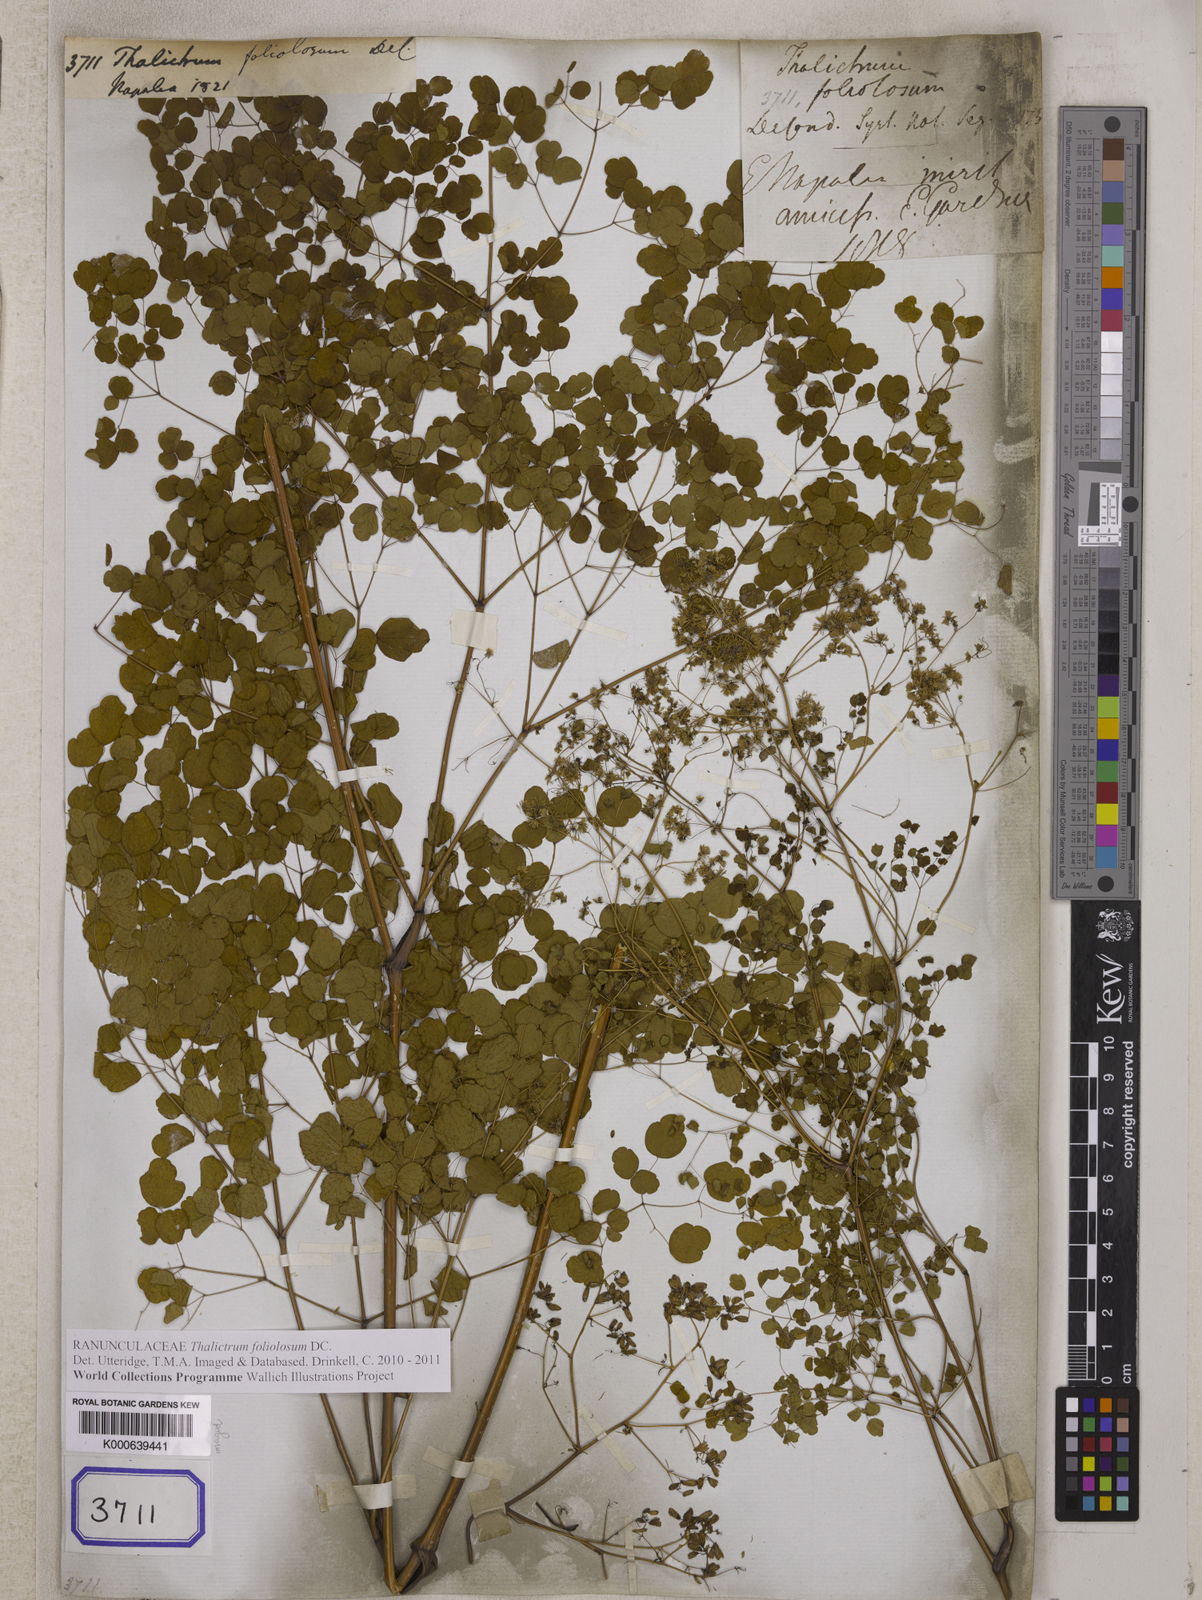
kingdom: Plantae
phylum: Tracheophyta
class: Magnoliopsida
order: Ranunculales
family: Ranunculaceae
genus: Thalictrum
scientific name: Thalictrum foliolosum
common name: Asian meadow-rue
